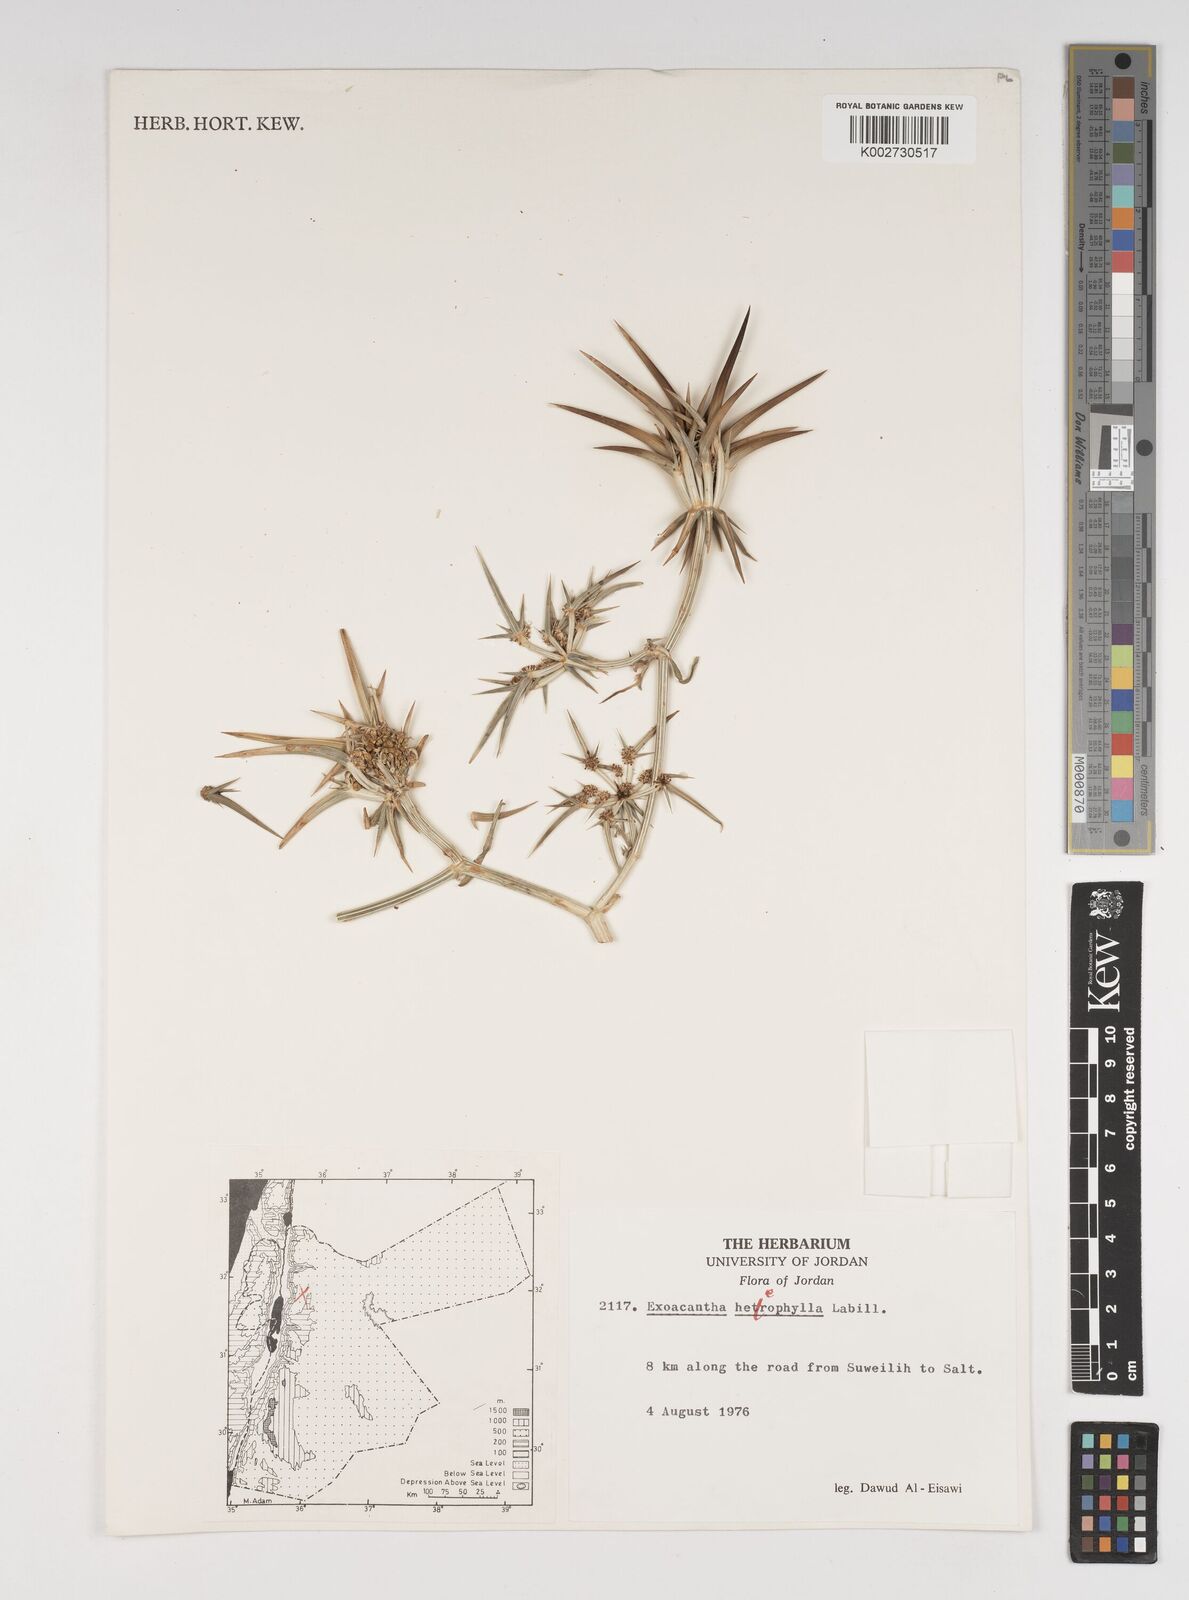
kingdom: Plantae
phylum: Tracheophyta
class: Magnoliopsida
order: Apiales
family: Apiaceae
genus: Exoacantha
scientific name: Exoacantha heterophylla
